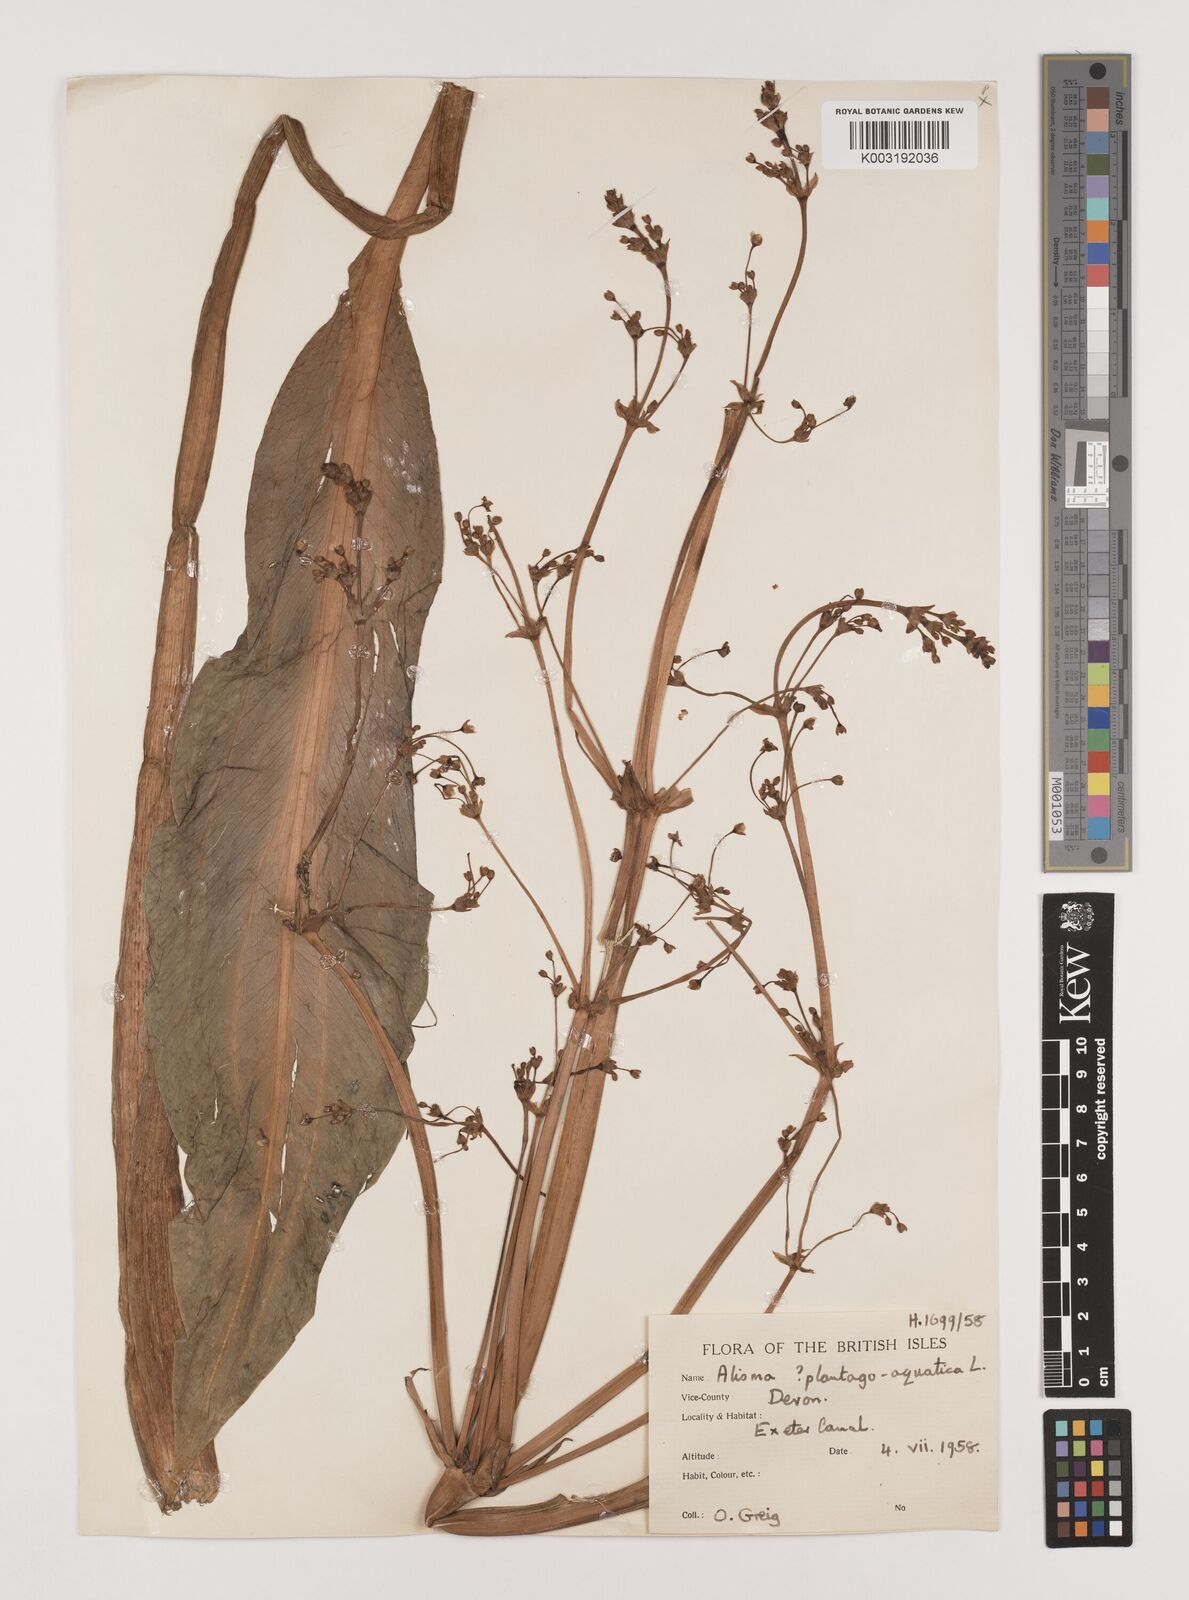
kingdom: Plantae
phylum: Tracheophyta
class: Liliopsida
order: Alismatales
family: Alismataceae
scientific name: Alismataceae
